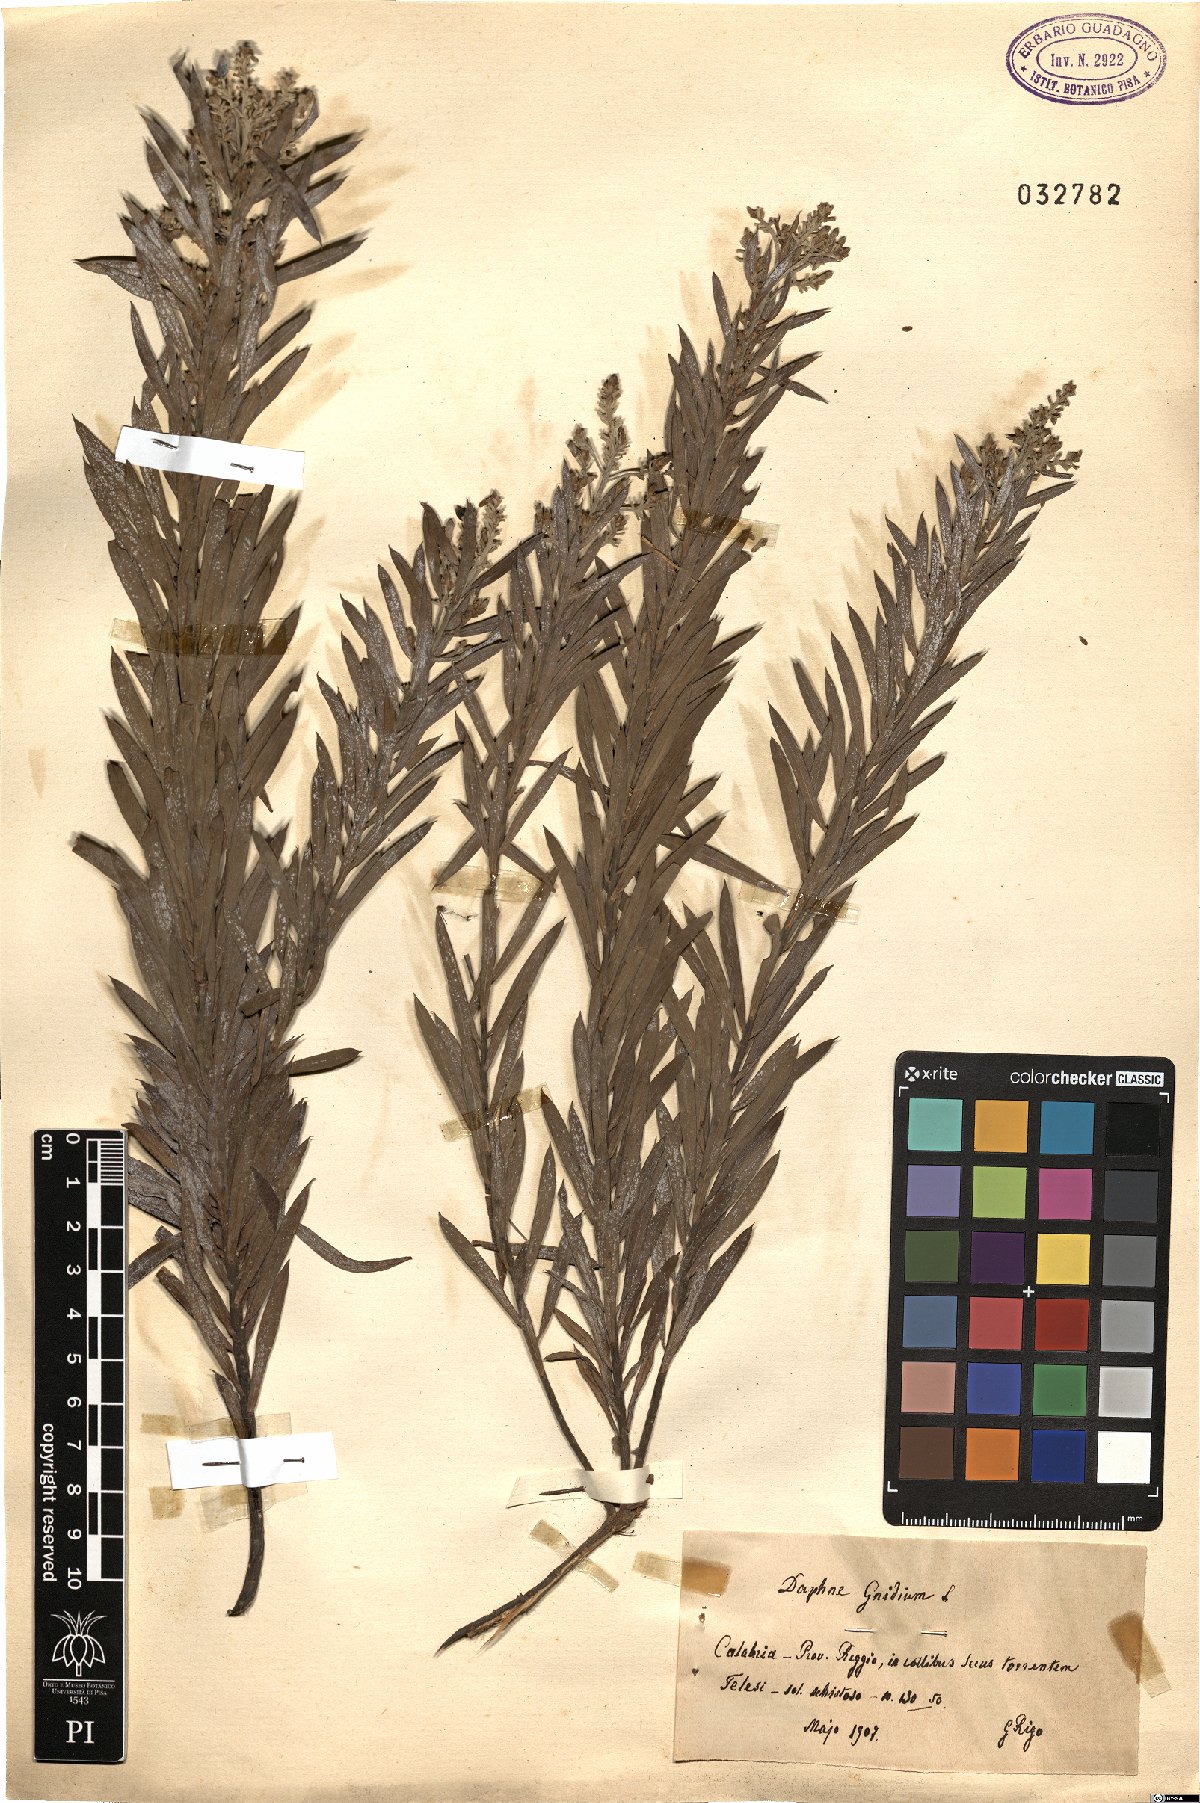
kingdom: Plantae
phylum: Tracheophyta
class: Magnoliopsida
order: Malvales
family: Thymelaeaceae
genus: Daphne
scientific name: Daphne gnidium
